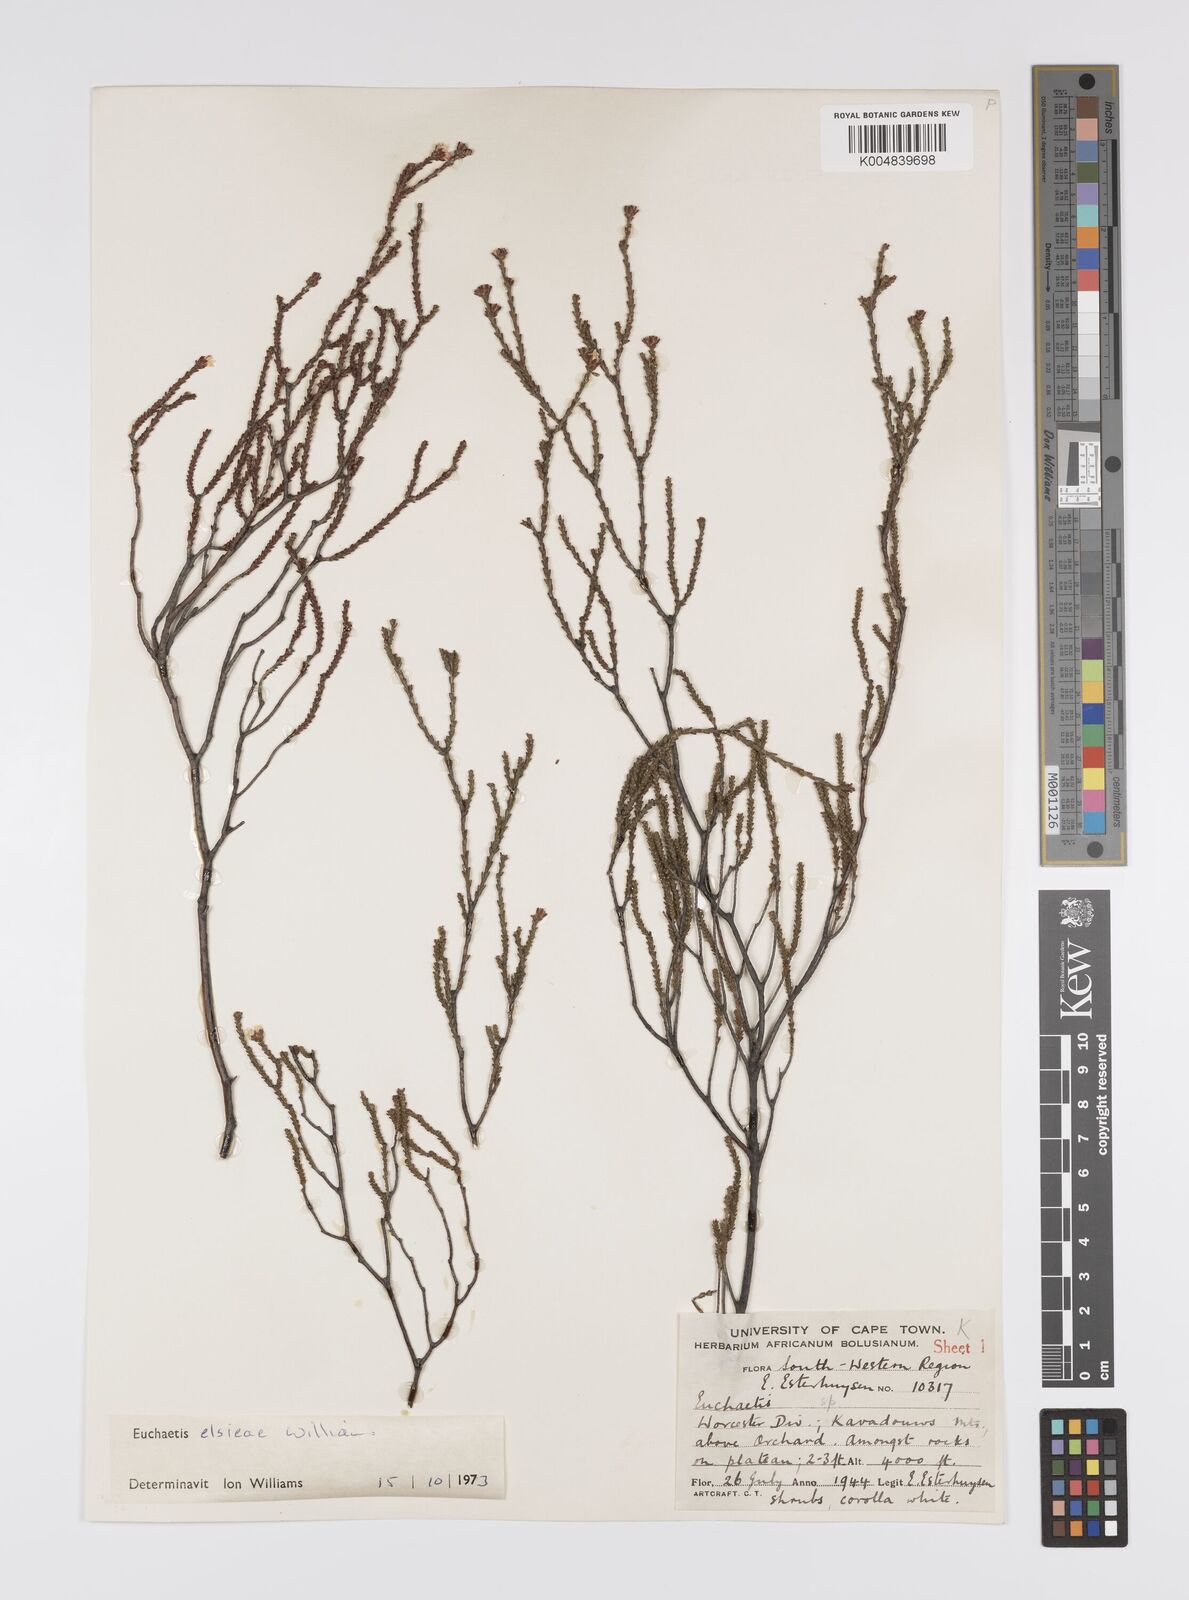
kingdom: Plantae
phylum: Tracheophyta
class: Magnoliopsida
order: Sapindales
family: Rutaceae
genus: Euchaetis
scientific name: Euchaetis elsieae
